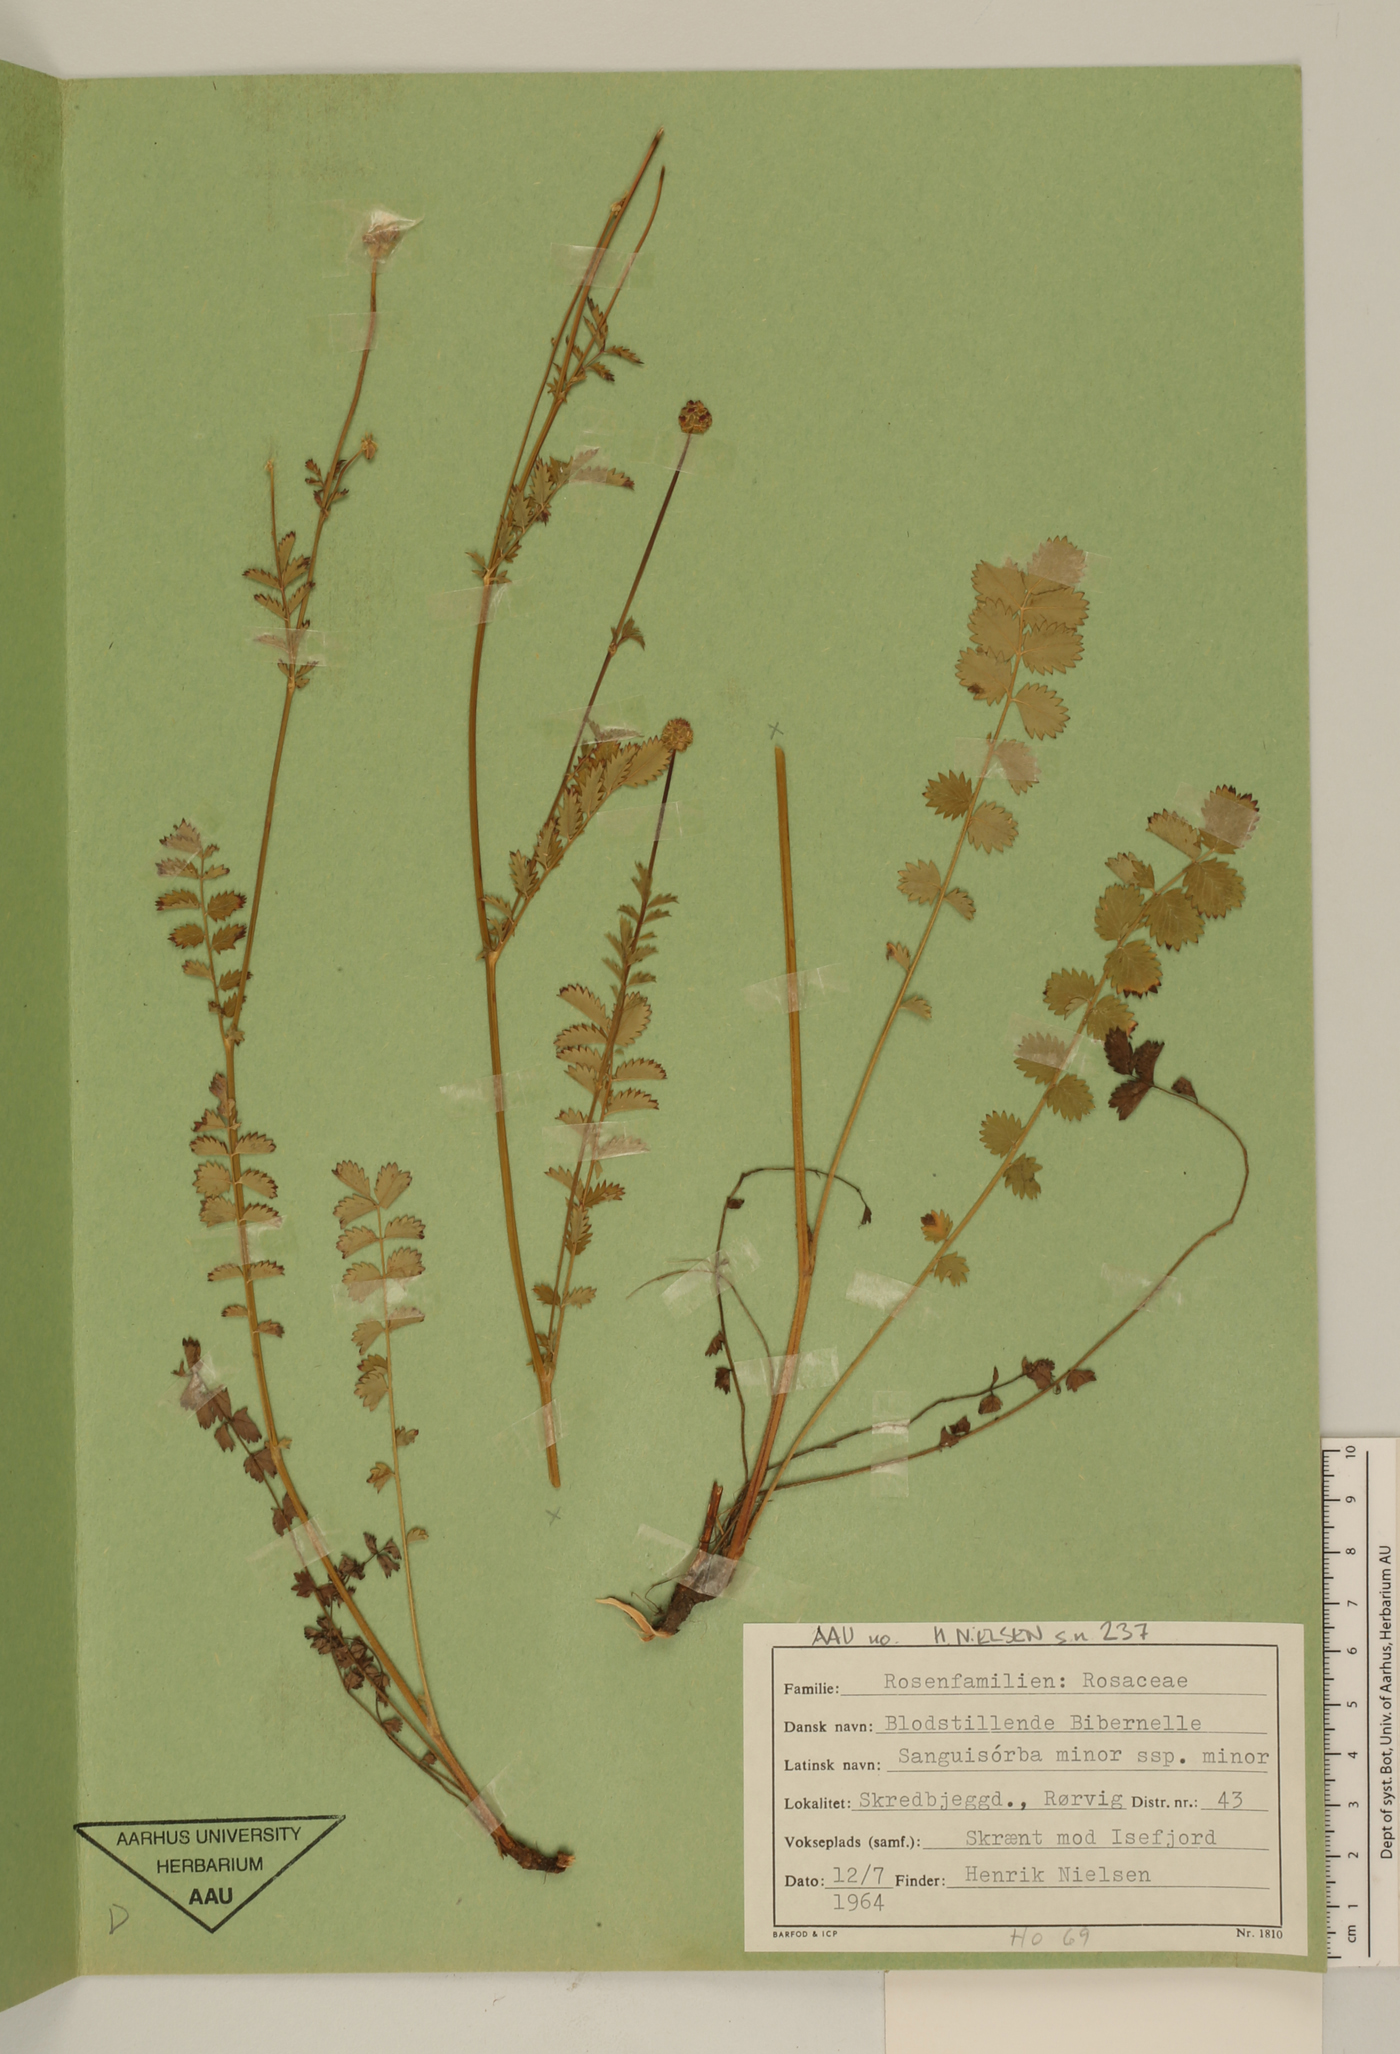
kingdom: Plantae
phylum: Tracheophyta
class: Magnoliopsida
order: Rosales
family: Rosaceae
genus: Poterium
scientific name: Poterium sanguisorba
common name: Salad burnet
